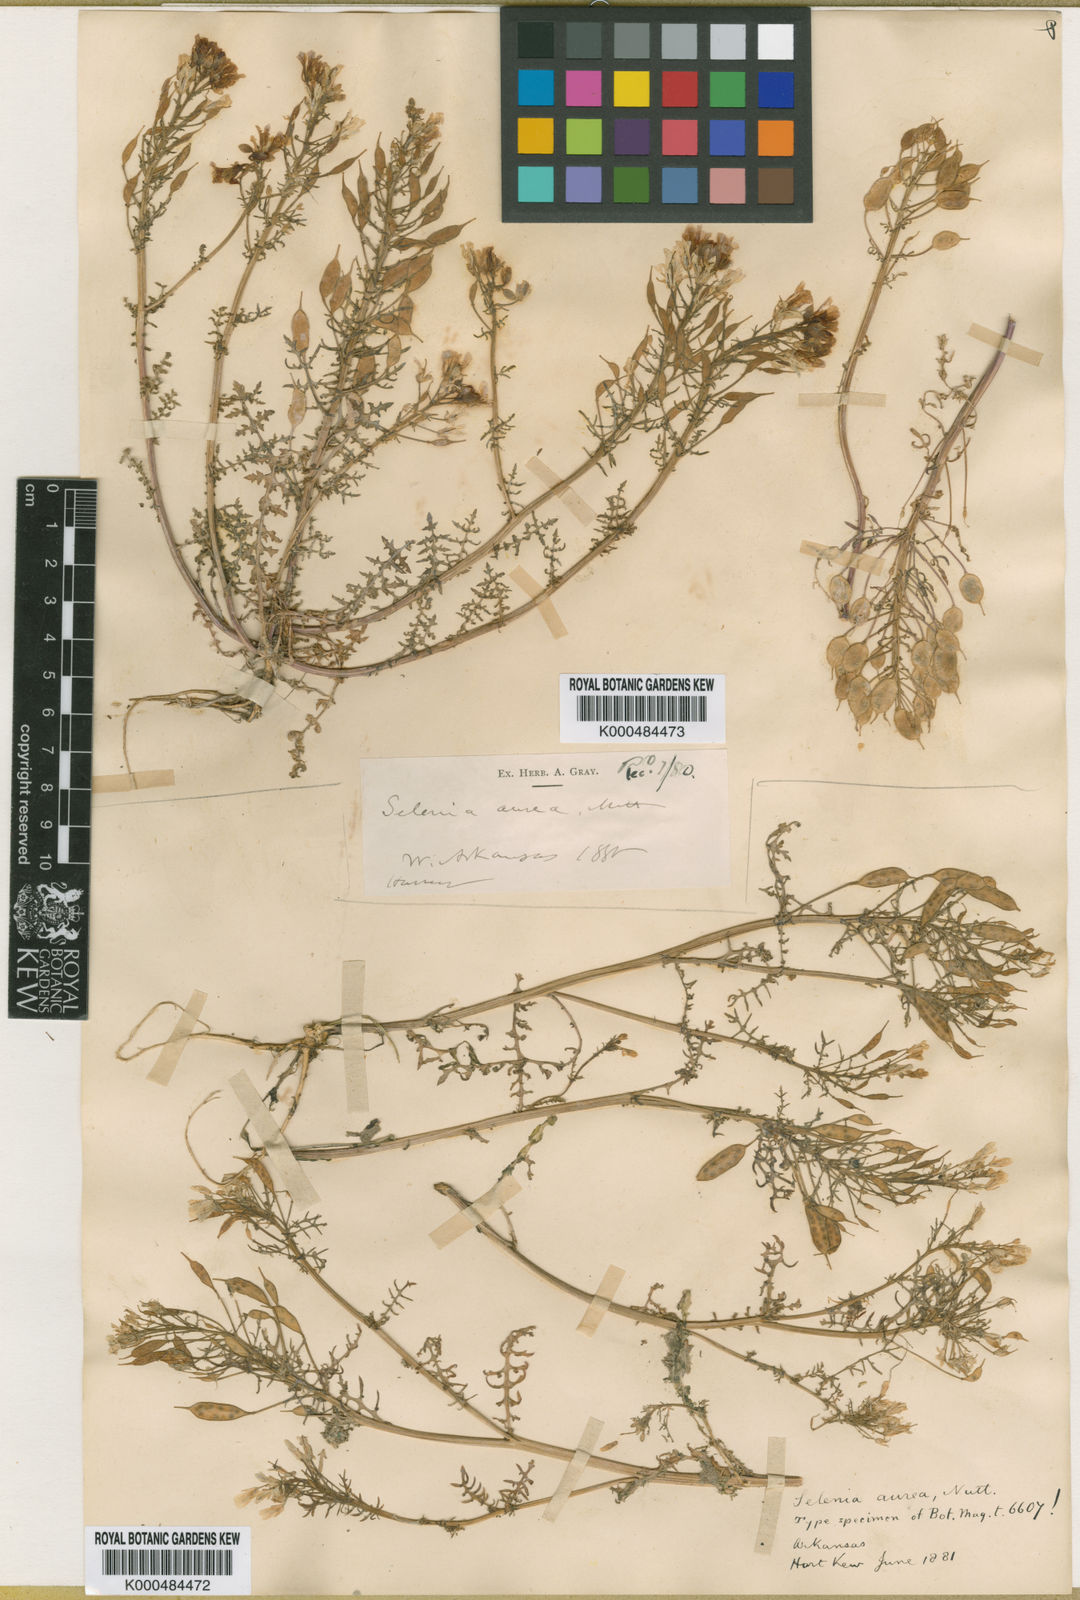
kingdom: Plantae
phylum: Tracheophyta
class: Magnoliopsida
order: Brassicales
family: Brassicaceae
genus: Selenia
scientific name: Selenia aurea
